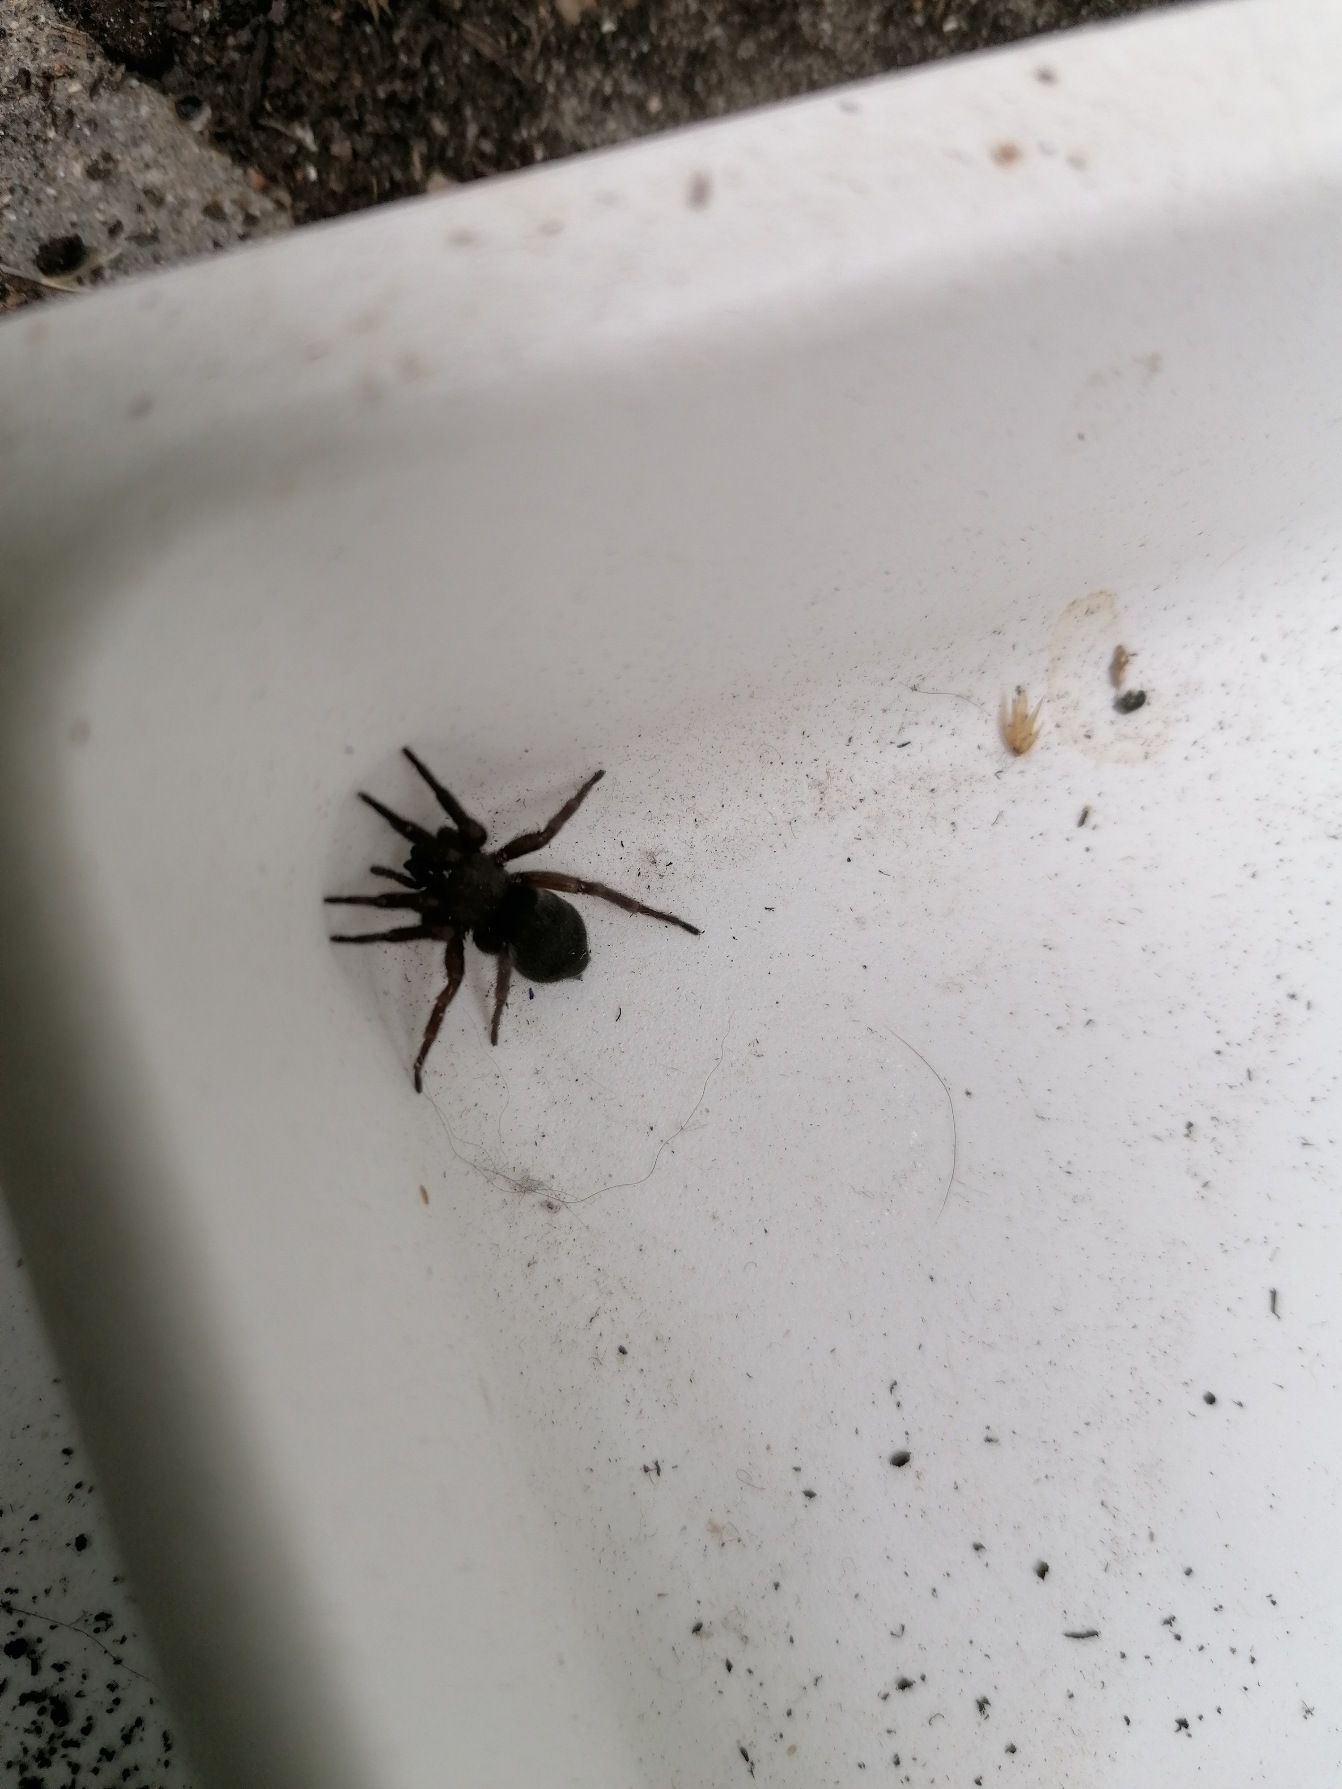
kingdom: Animalia
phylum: Arthropoda
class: Arachnida
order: Araneae
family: Gnaphosidae
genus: Scotophaeus
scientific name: Scotophaeus
